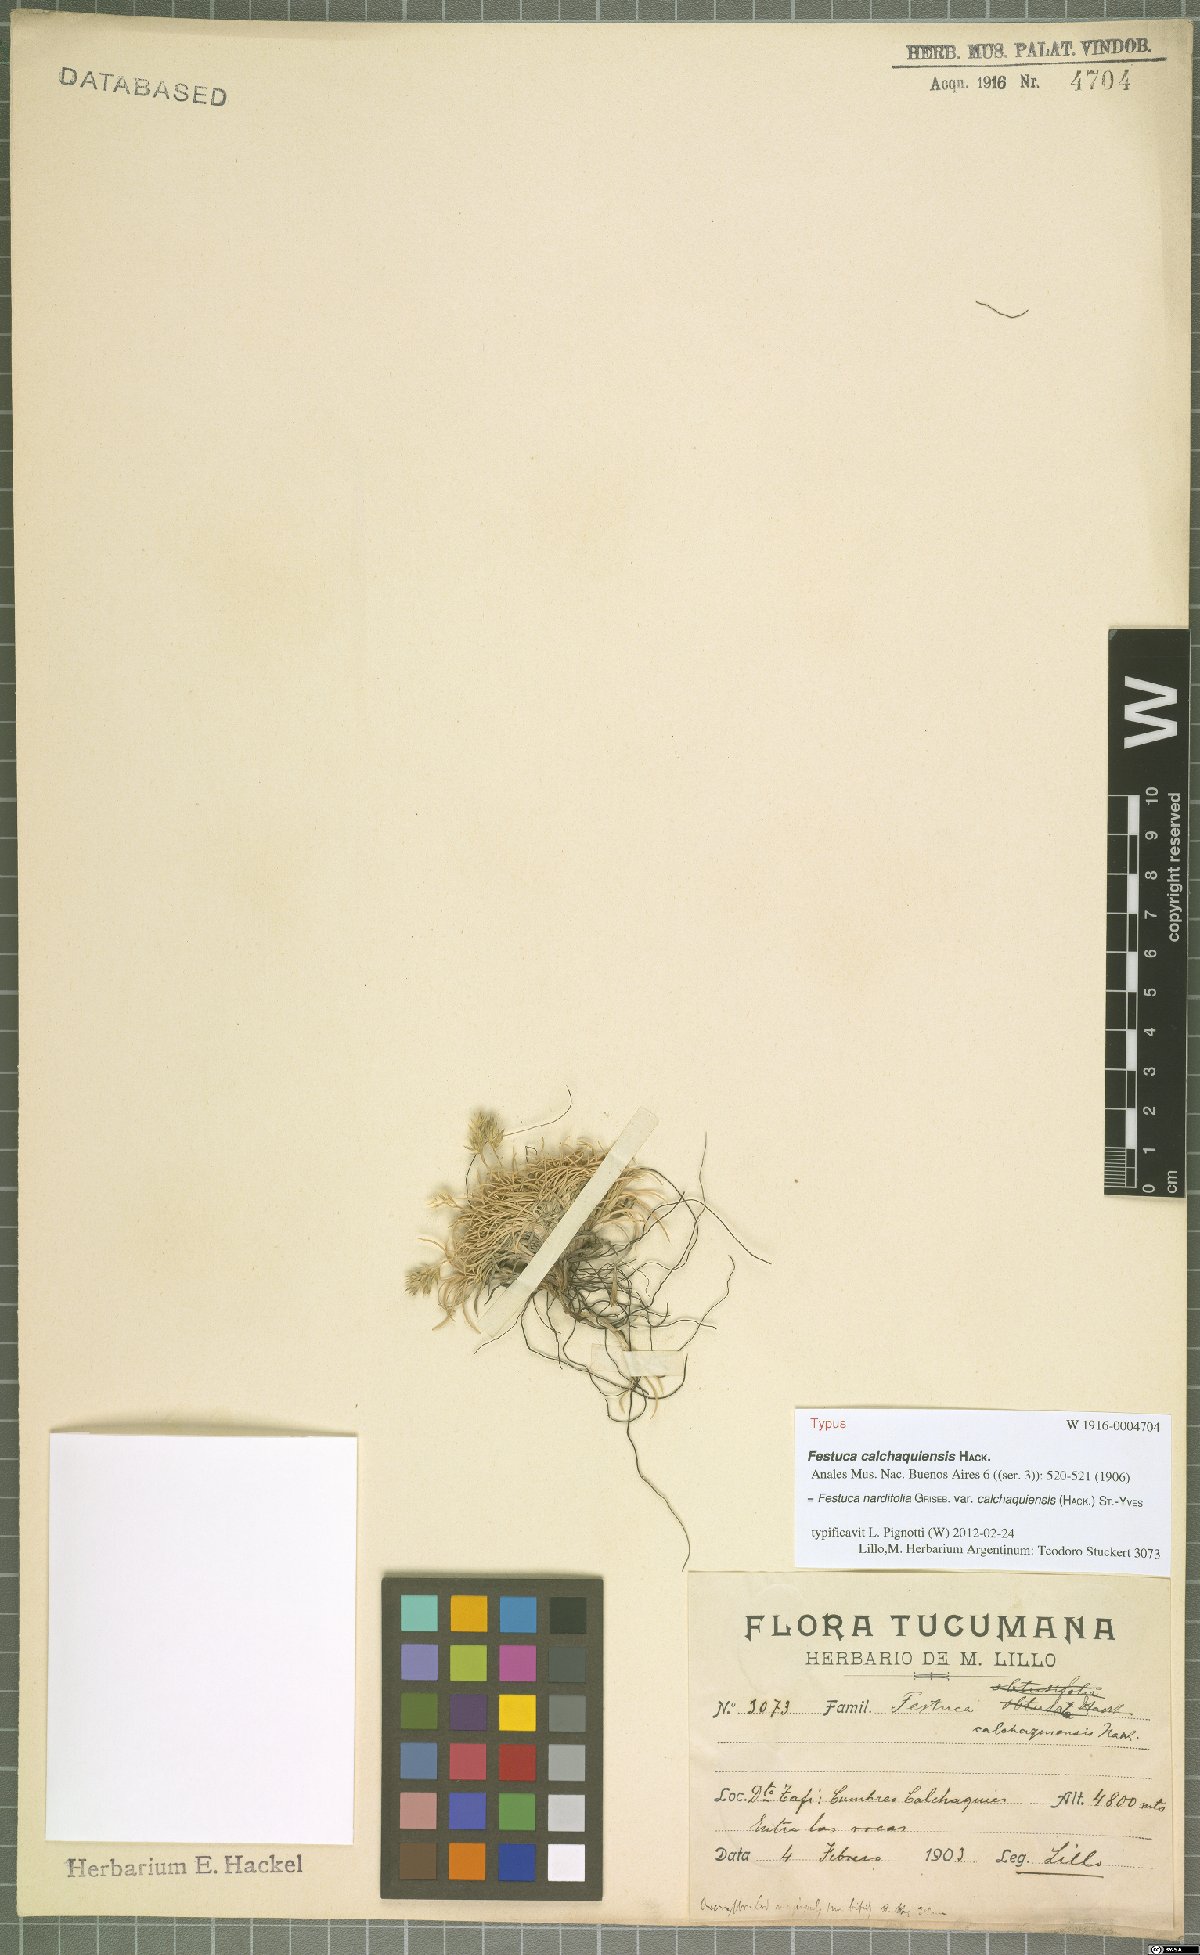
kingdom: Plantae
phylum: Tracheophyta
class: Liliopsida
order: Poales
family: Poaceae
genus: Festuca
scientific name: Festuca nardifolia
